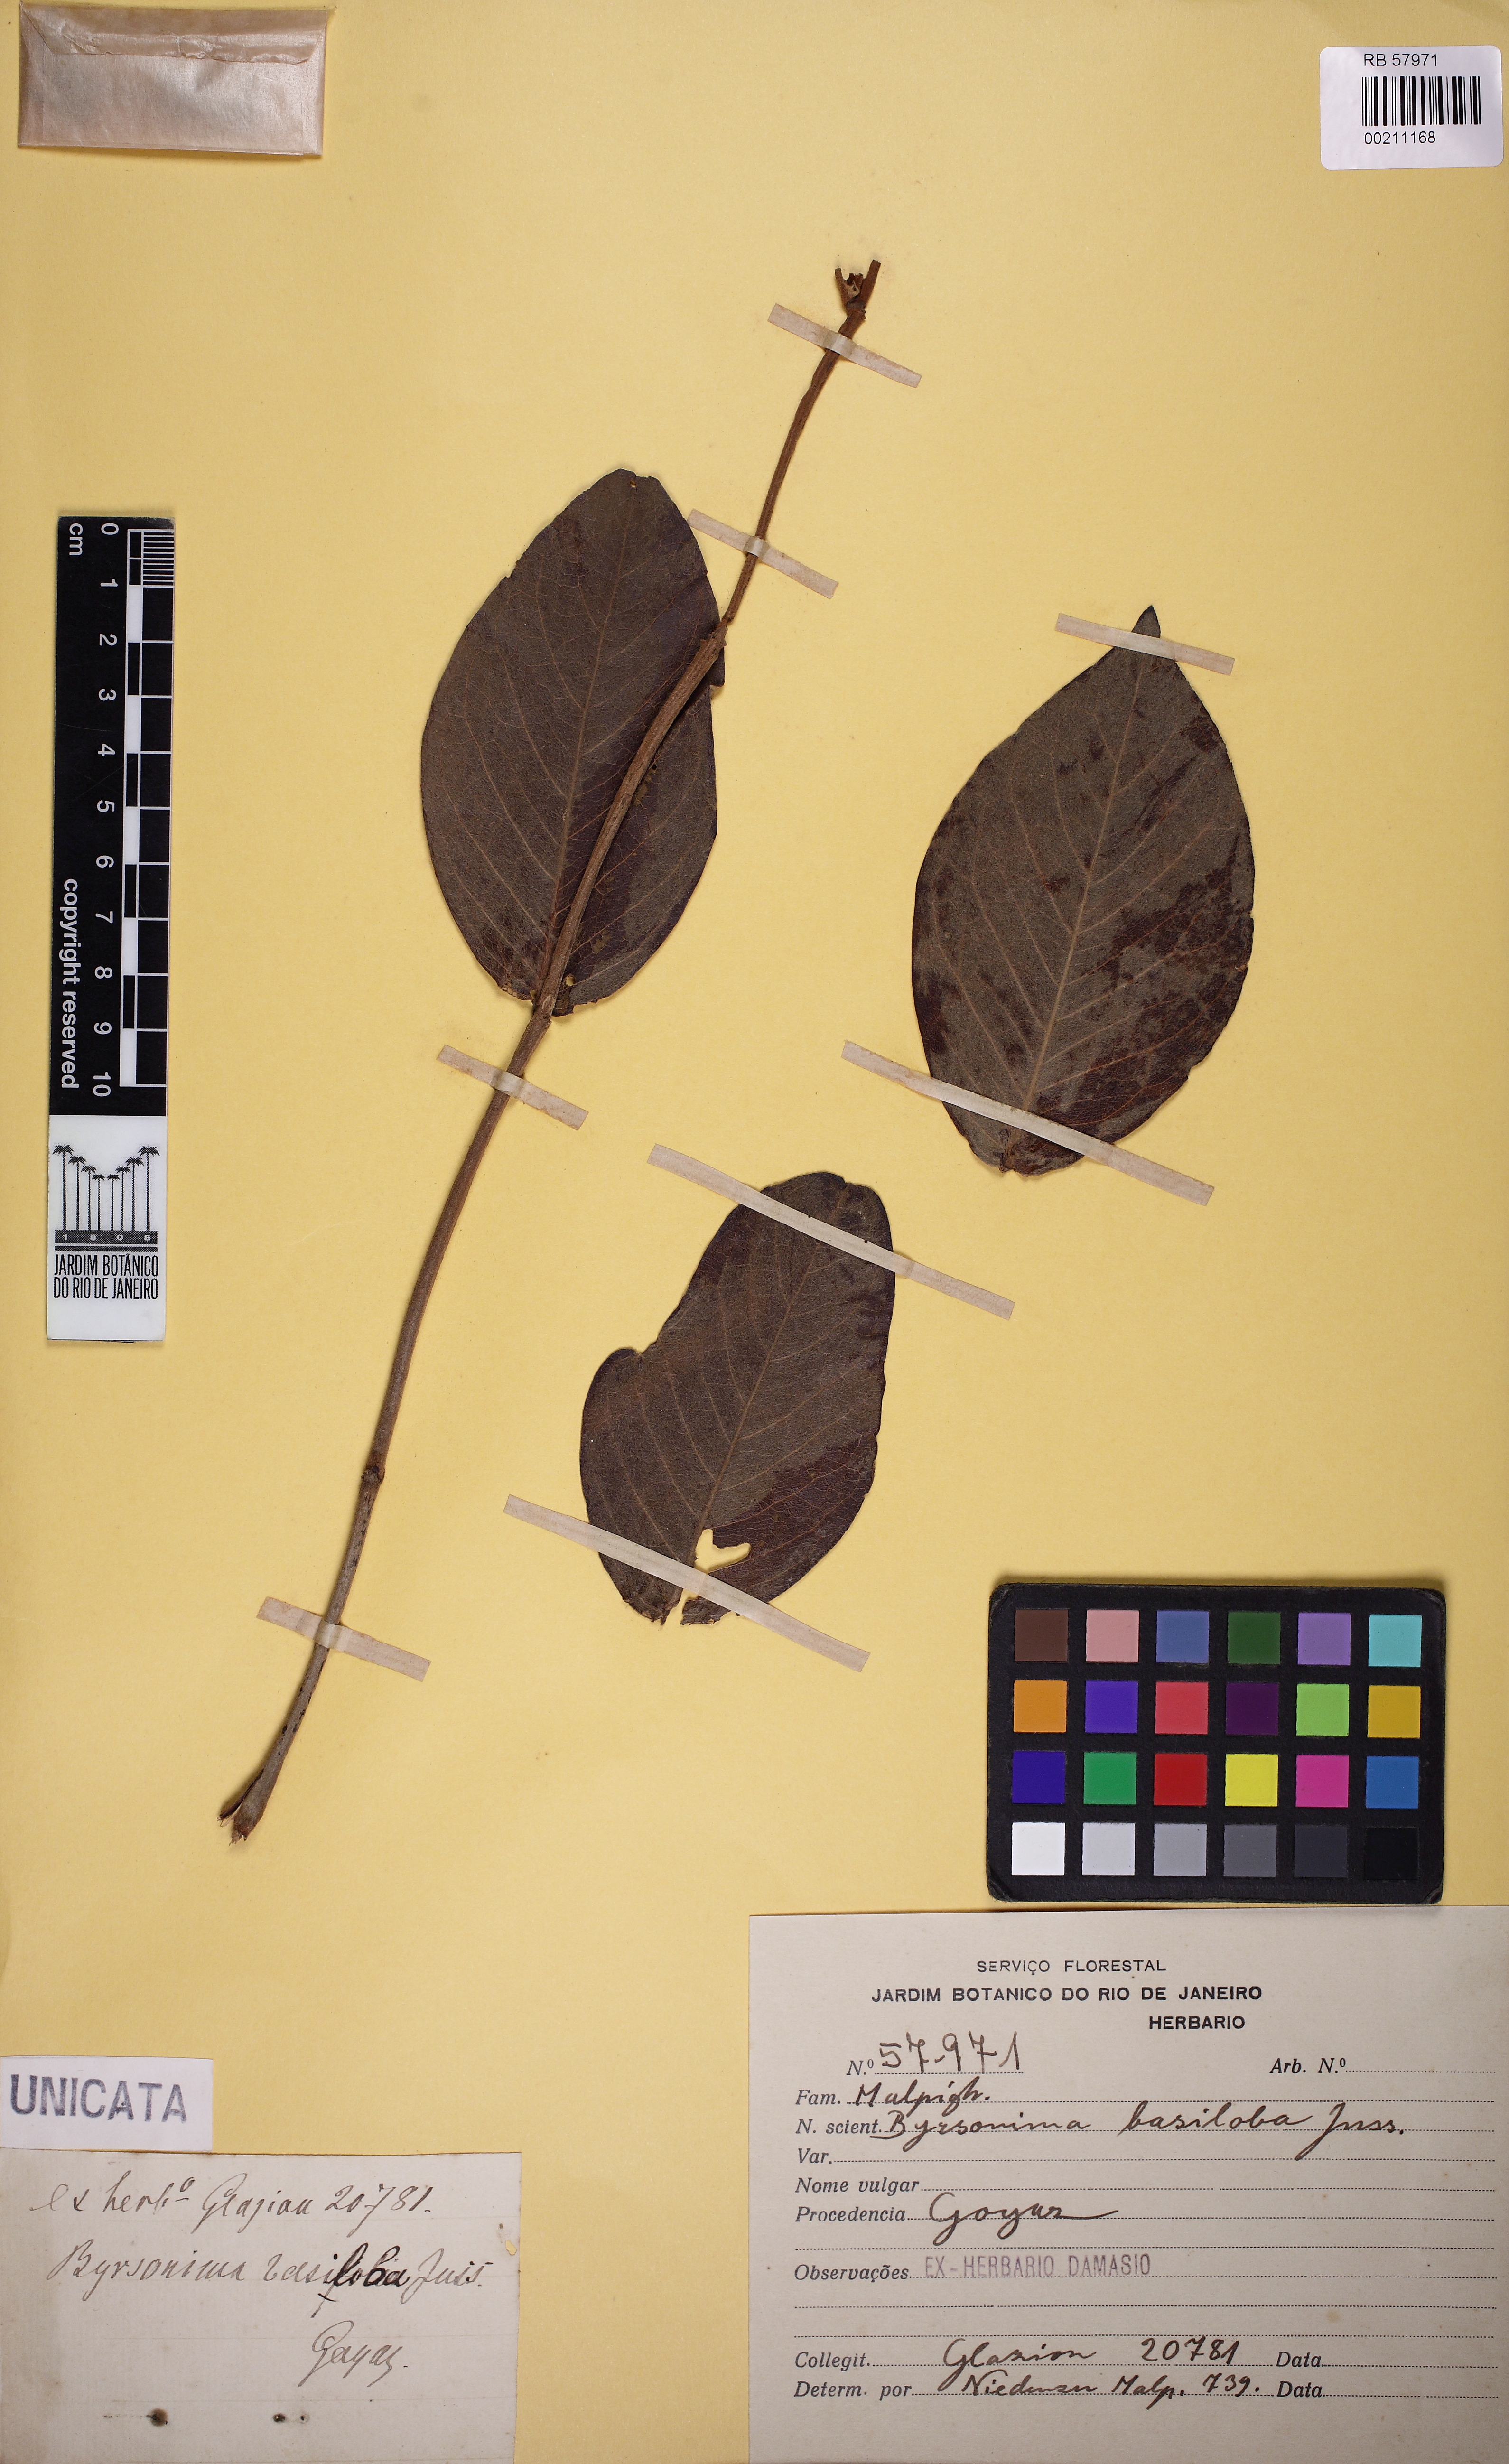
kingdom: Plantae
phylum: Tracheophyta
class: Magnoliopsida
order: Malpighiales
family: Malpighiaceae
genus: Byrsonima
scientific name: Byrsonima basiloba
